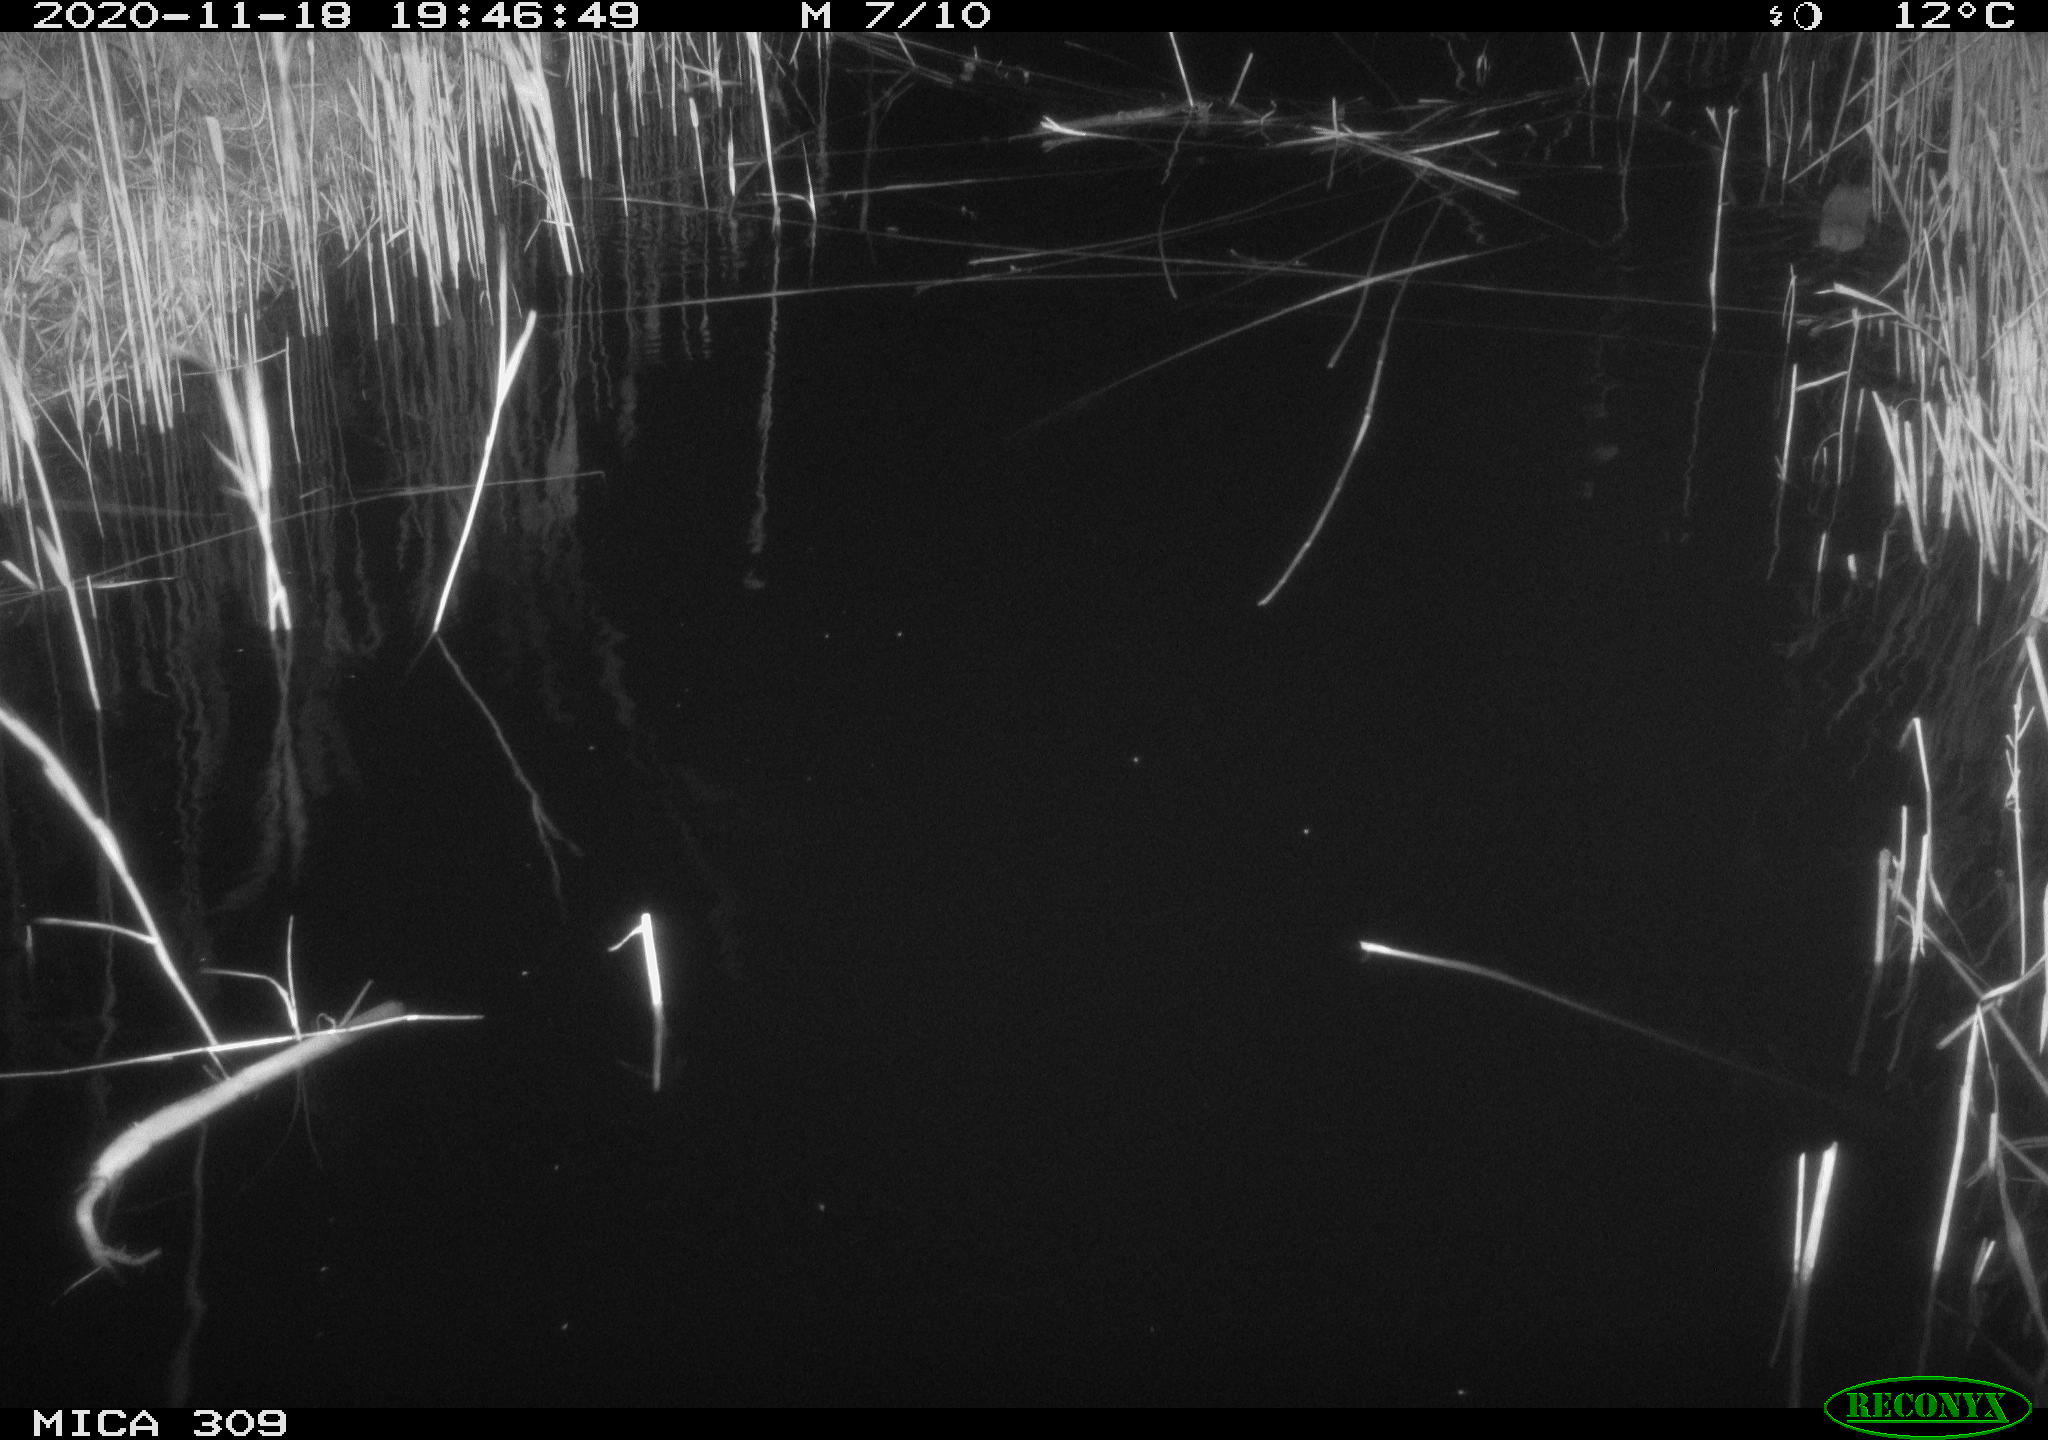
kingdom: Animalia
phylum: Chordata
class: Mammalia
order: Rodentia
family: Muridae
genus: Rattus
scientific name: Rattus norvegicus
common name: Brown rat
